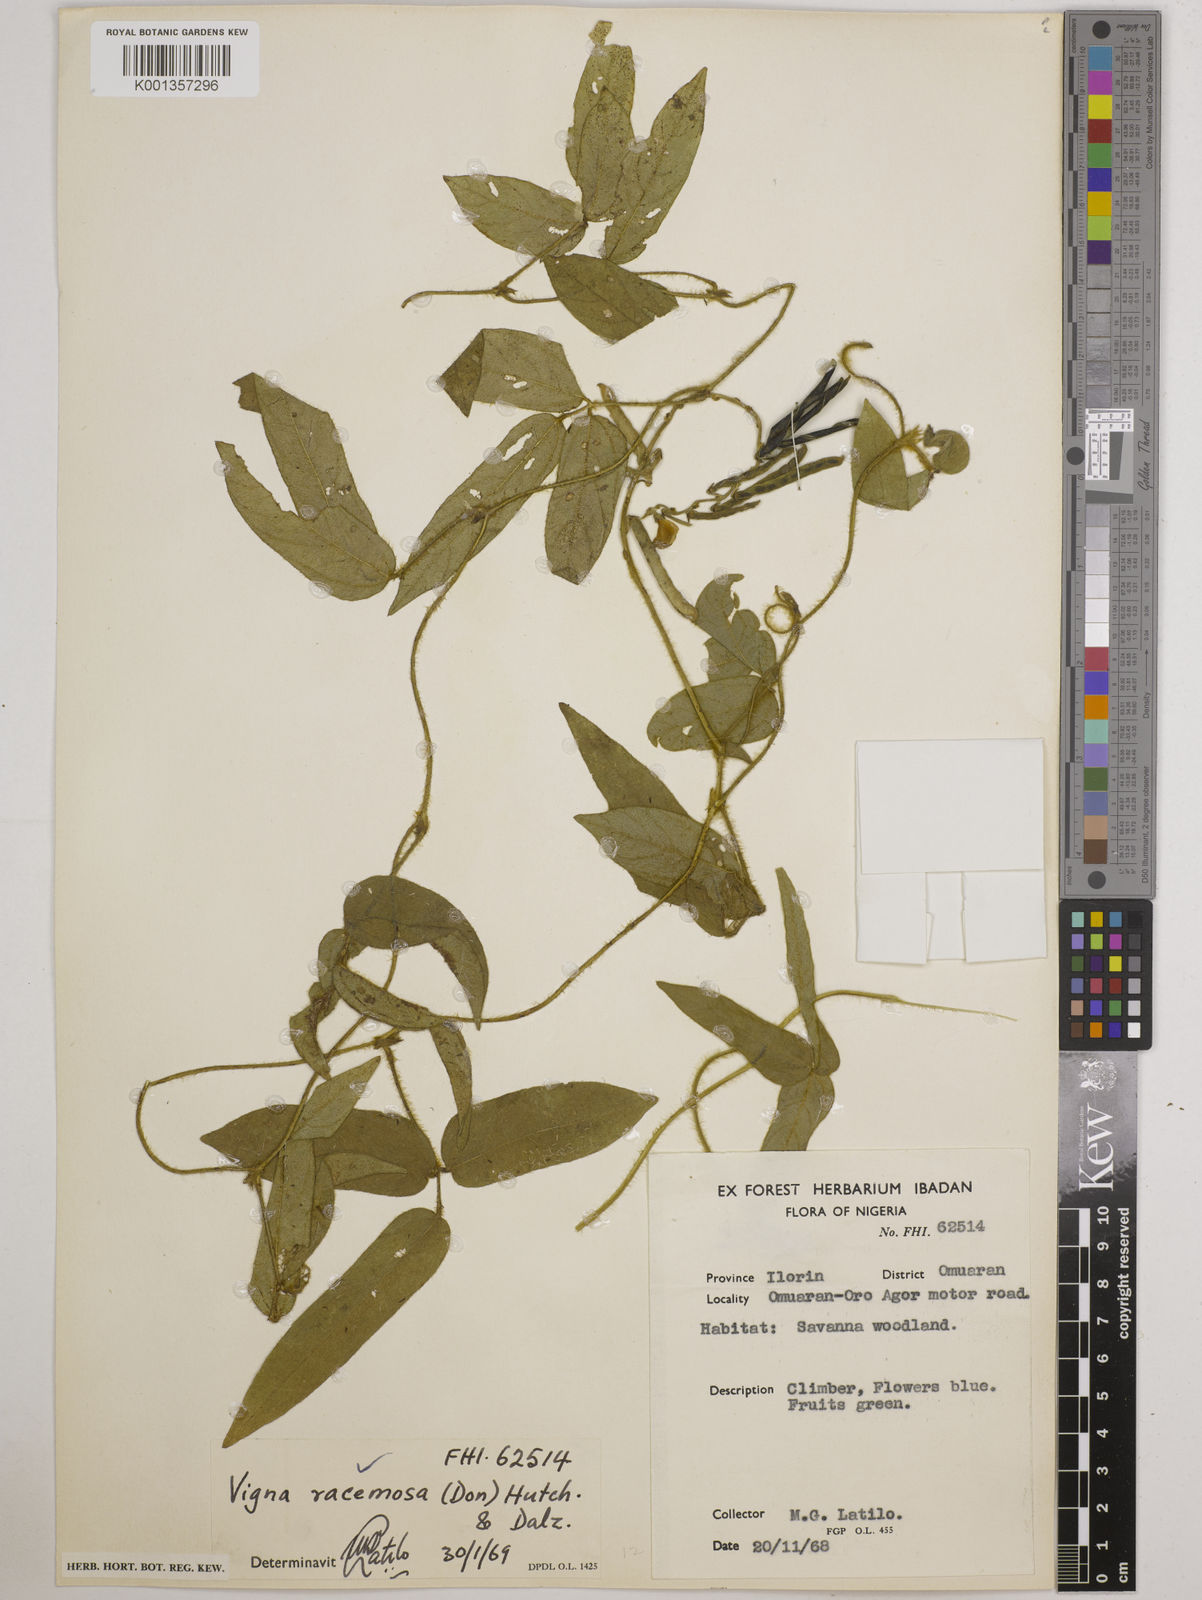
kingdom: Plantae
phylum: Tracheophyta
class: Magnoliopsida
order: Fabales
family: Fabaceae
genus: Vigna
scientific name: Vigna racemosa
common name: Beans not eaten
